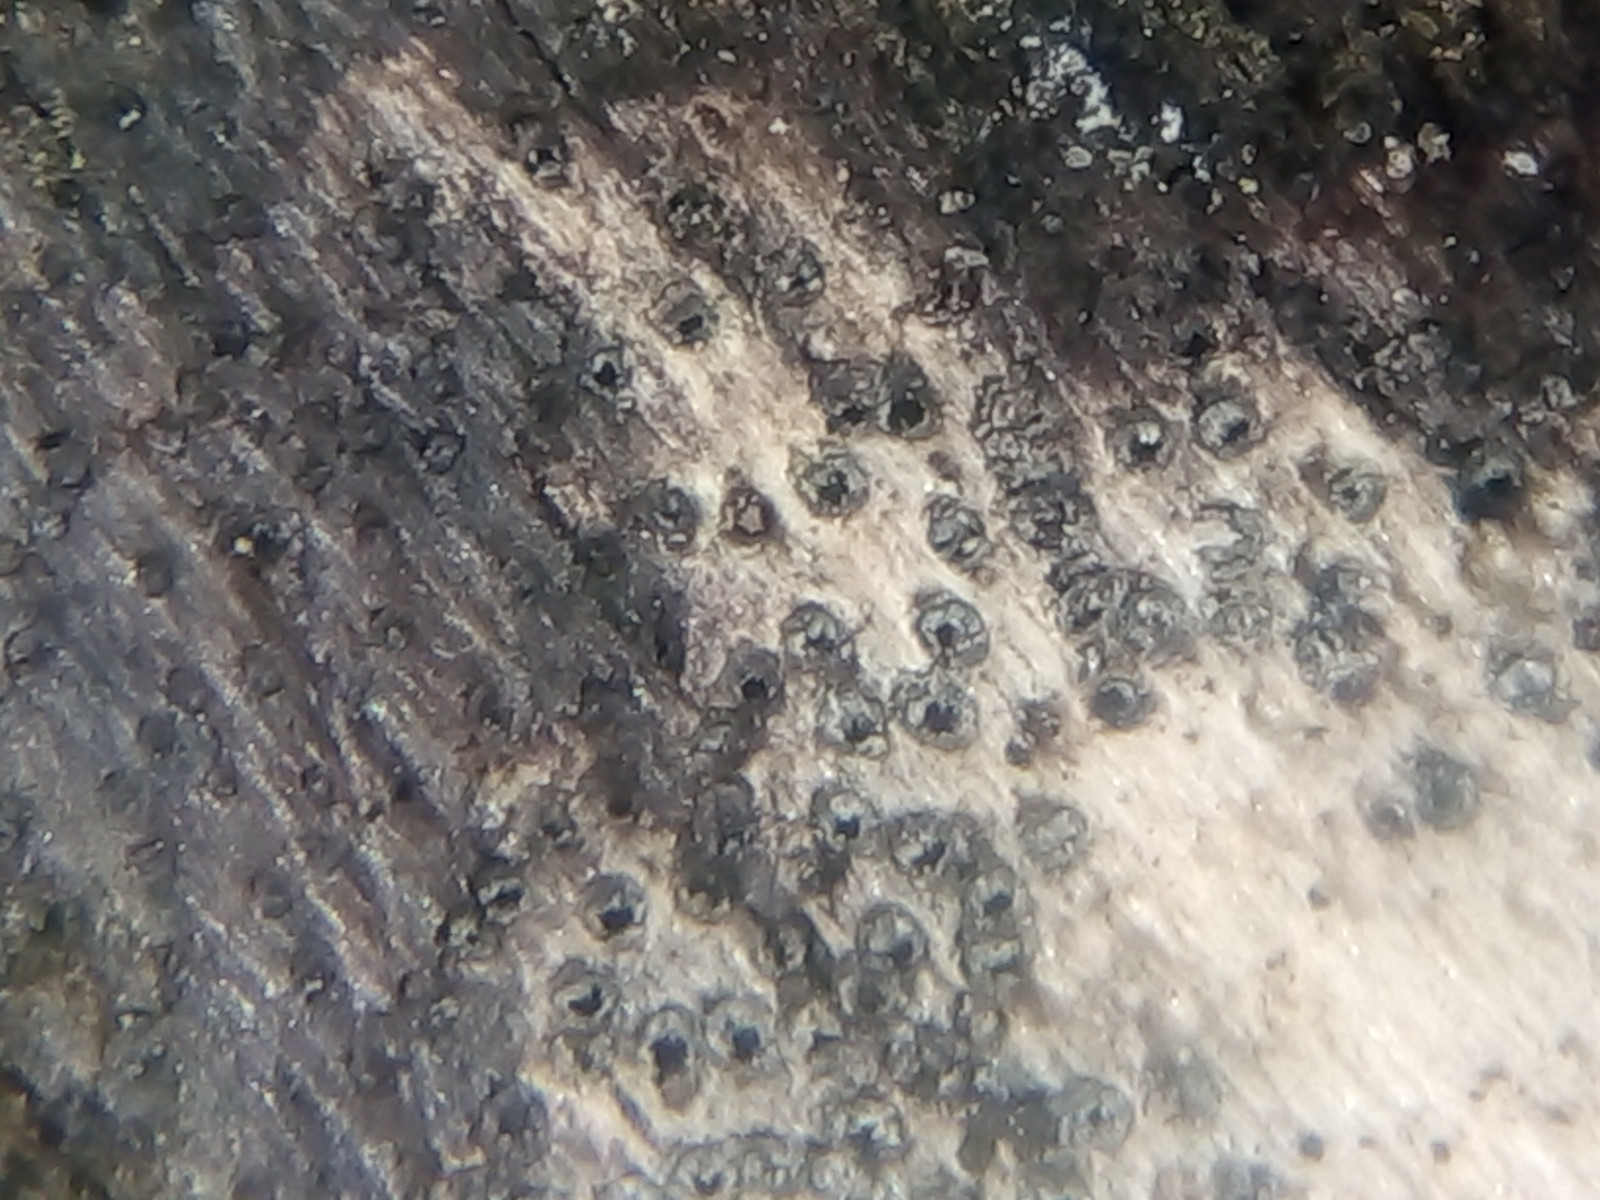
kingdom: Fungi
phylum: Ascomycota
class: Sordariomycetes
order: Xylariales
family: Diatrypaceae
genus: Eutypa
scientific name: Eutypa
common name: kulskorpe
